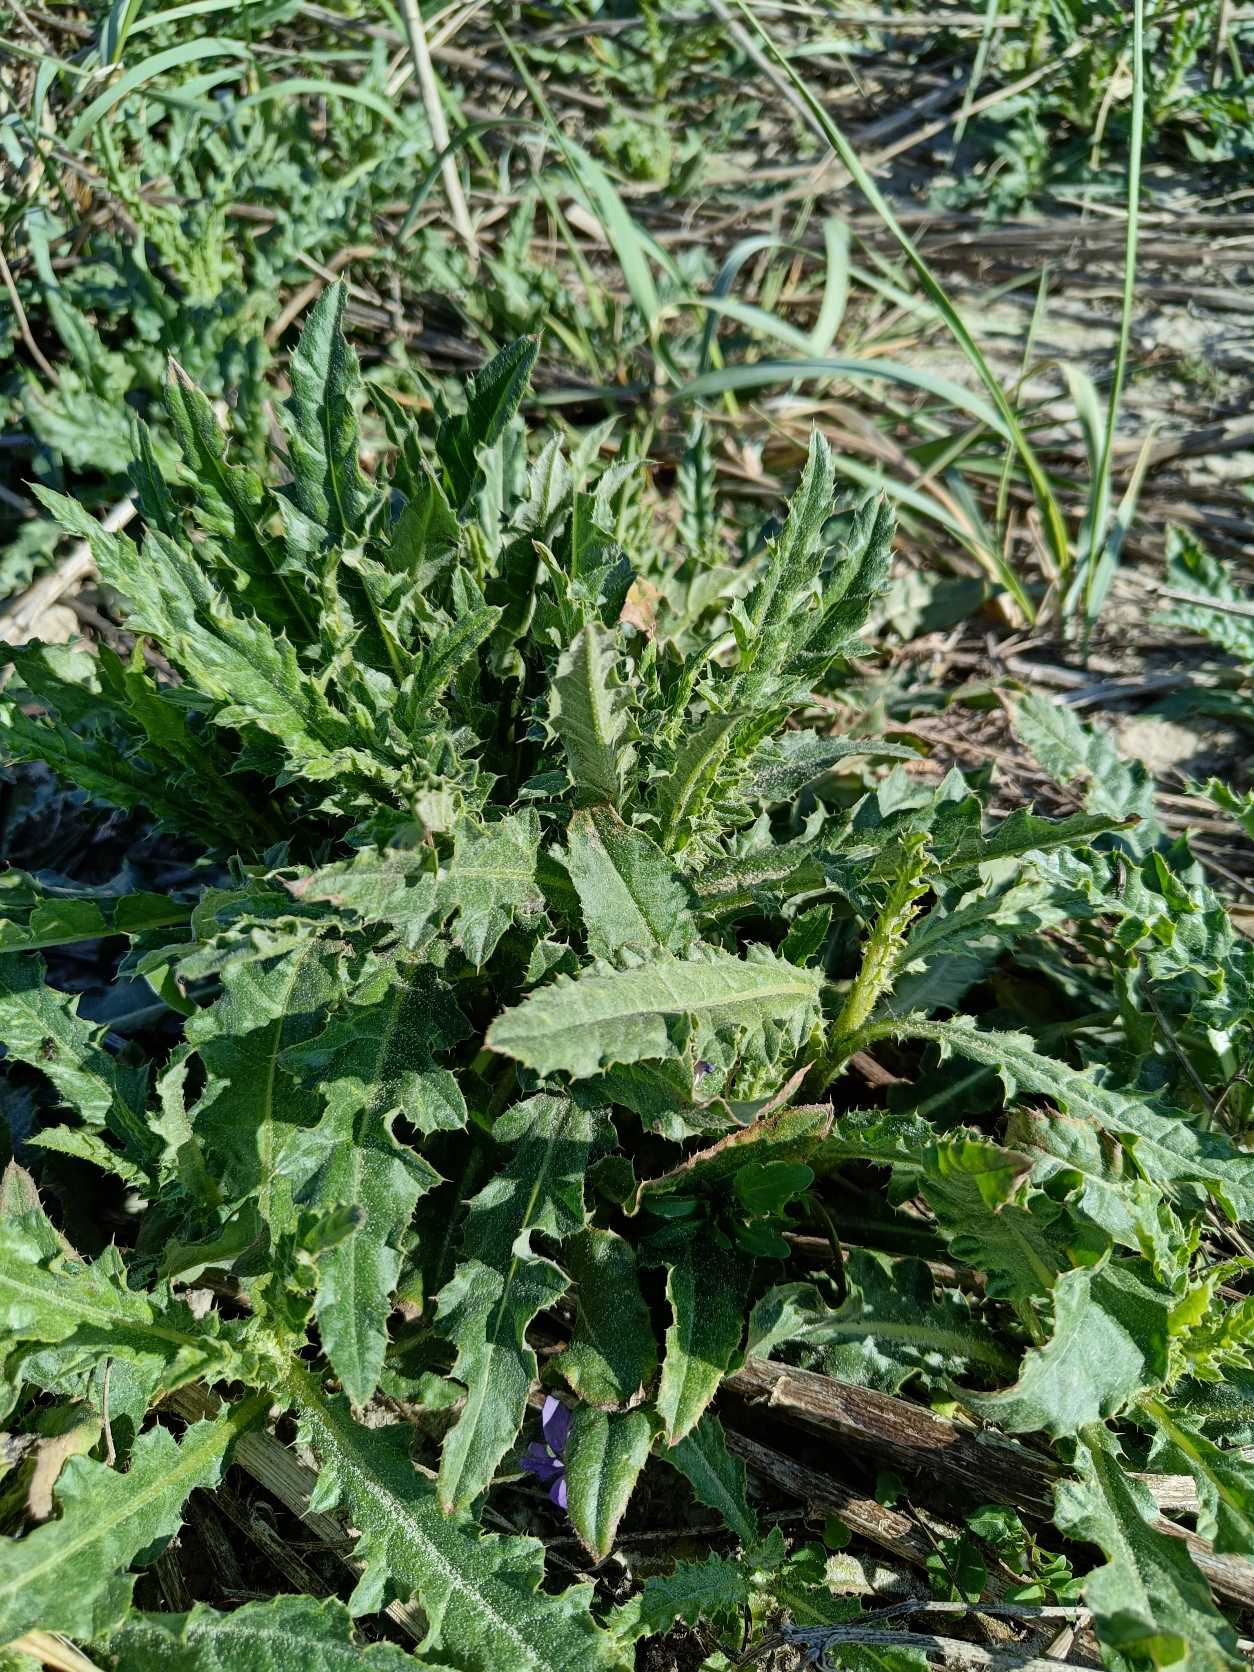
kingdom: Plantae
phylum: Tracheophyta
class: Magnoliopsida
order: Asterales
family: Asteraceae
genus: Cirsium
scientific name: Cirsium arvense
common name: Ager-tidsel
